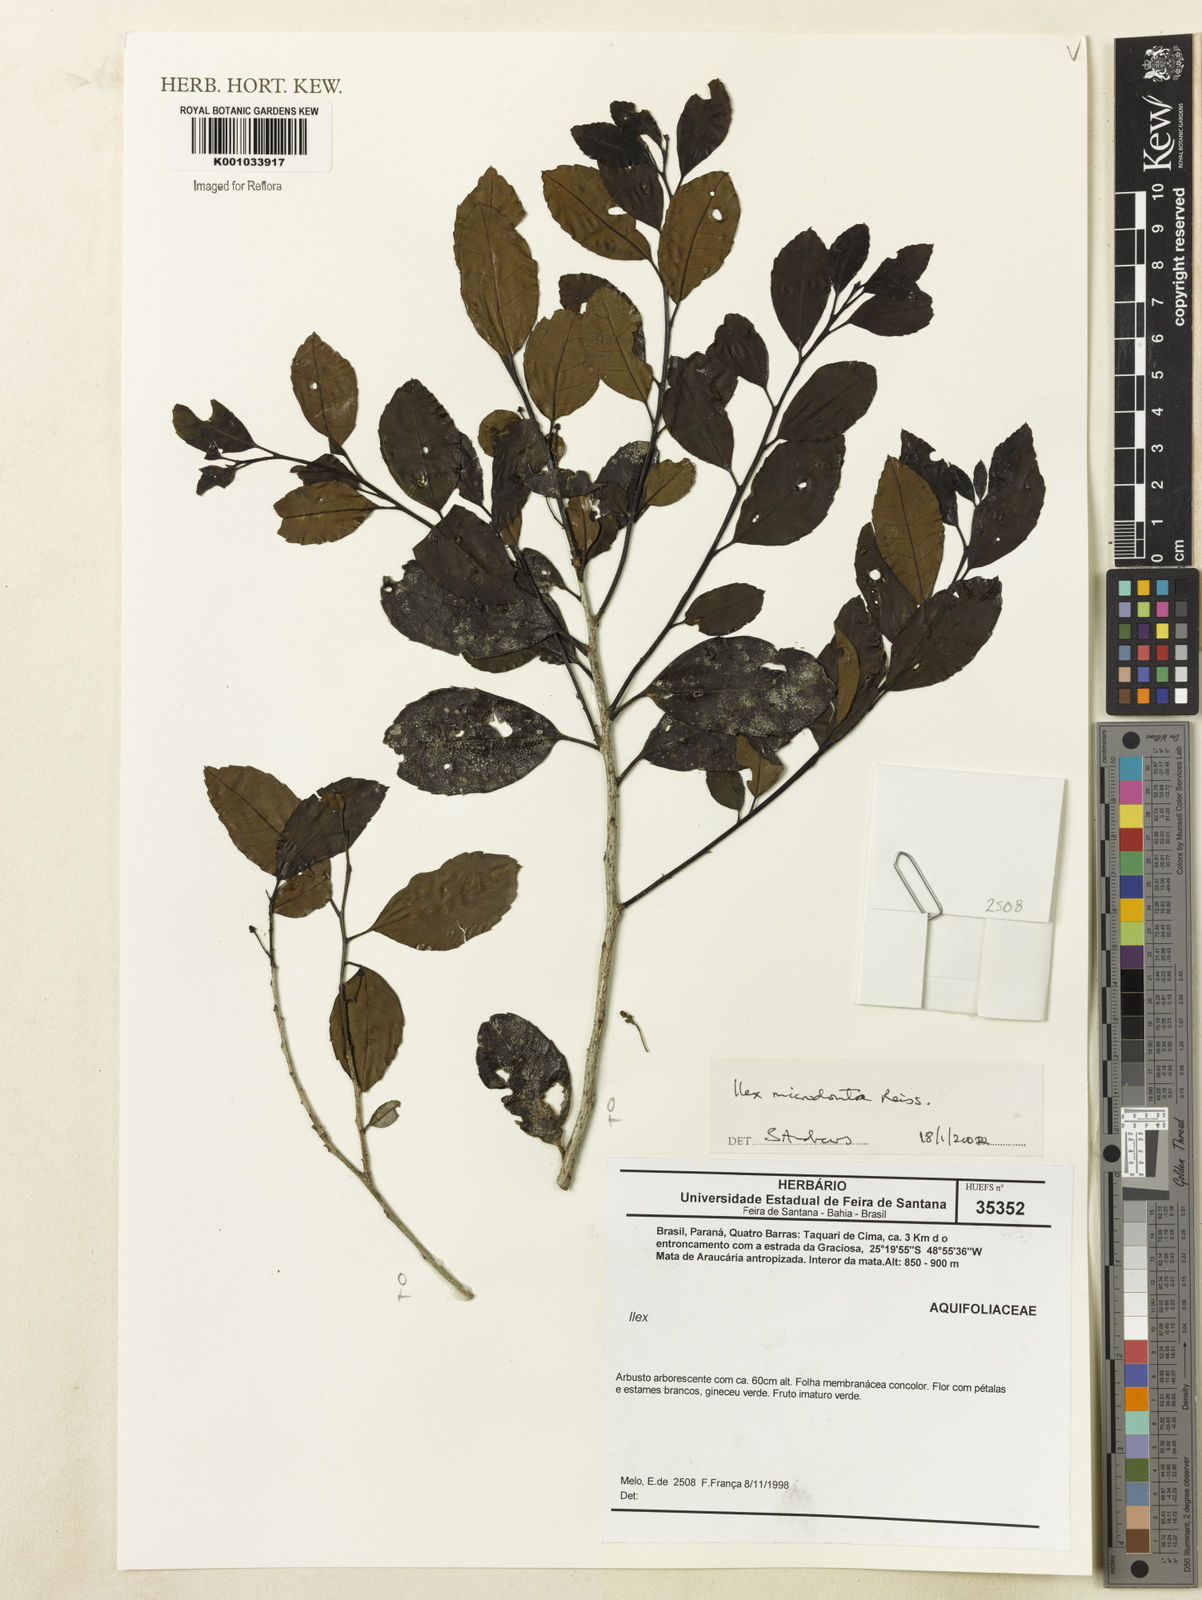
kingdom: Plantae
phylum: Tracheophyta
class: Magnoliopsida
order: Aquifoliales
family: Aquifoliaceae
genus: Ilex
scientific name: Ilex microdonta
